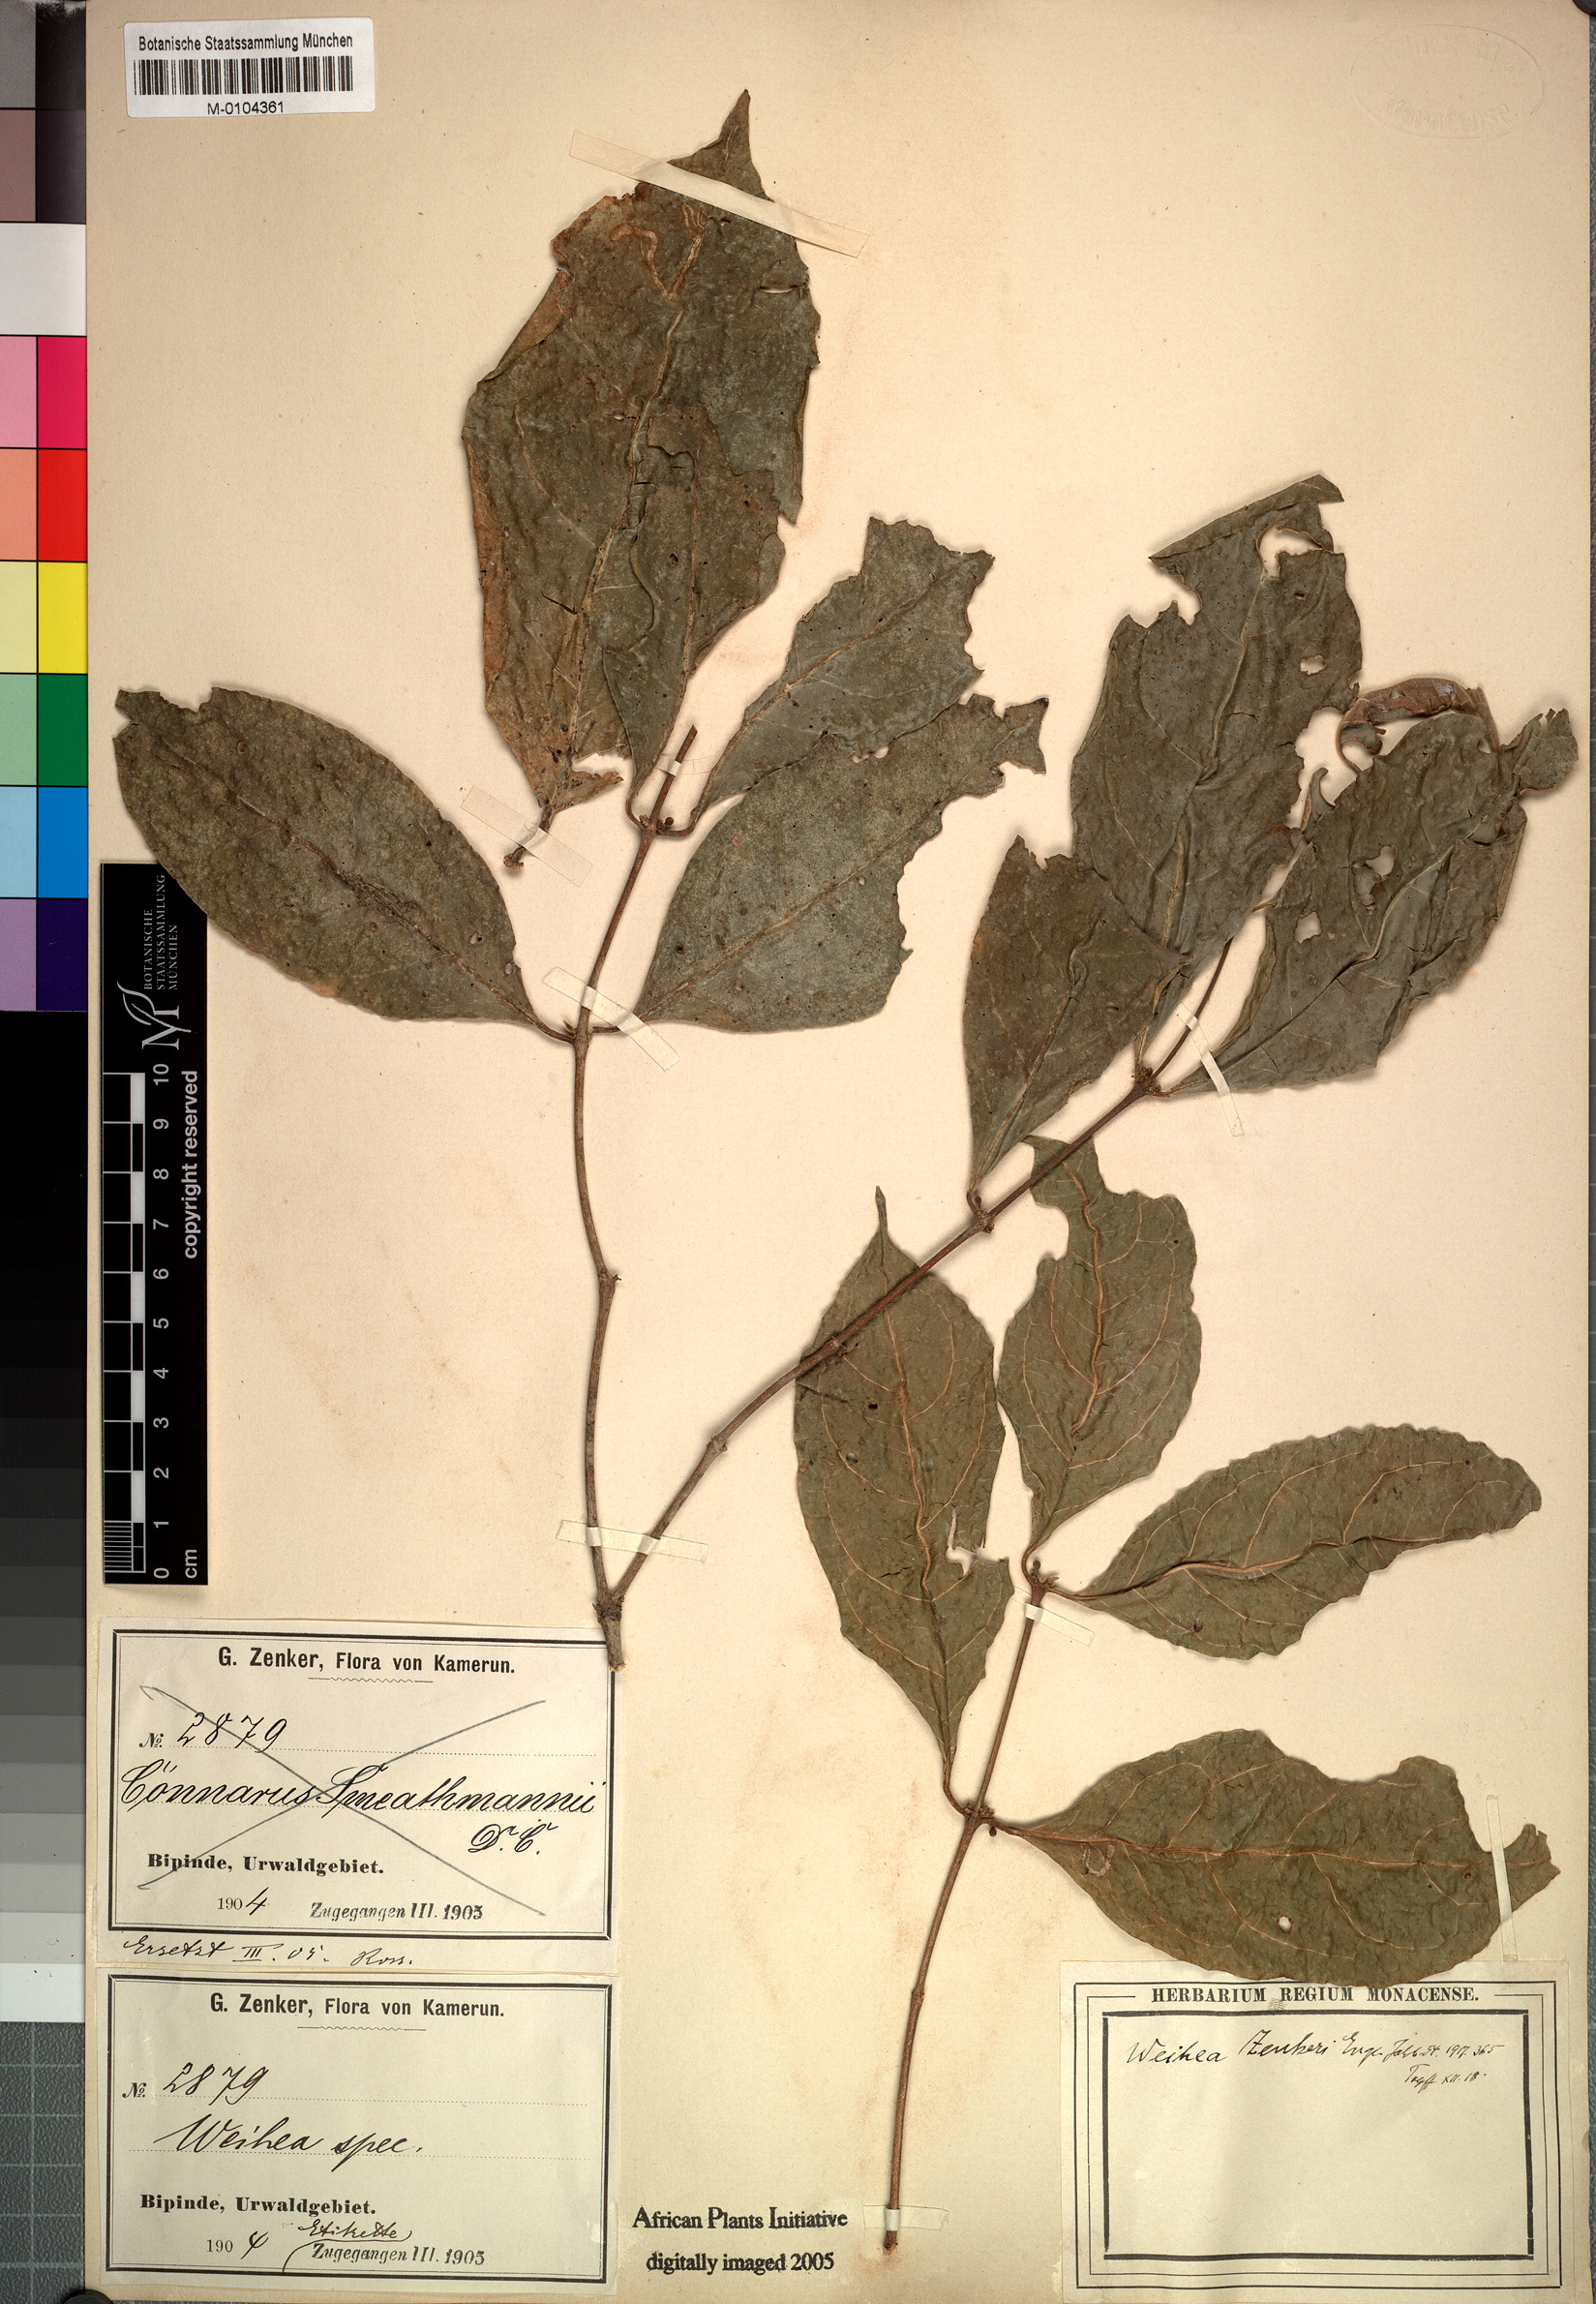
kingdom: Plantae
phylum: Tracheophyta
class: Magnoliopsida
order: Malpighiales
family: Rhizophoraceae
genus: Cassipourea
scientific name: Cassipourea zenkeri
